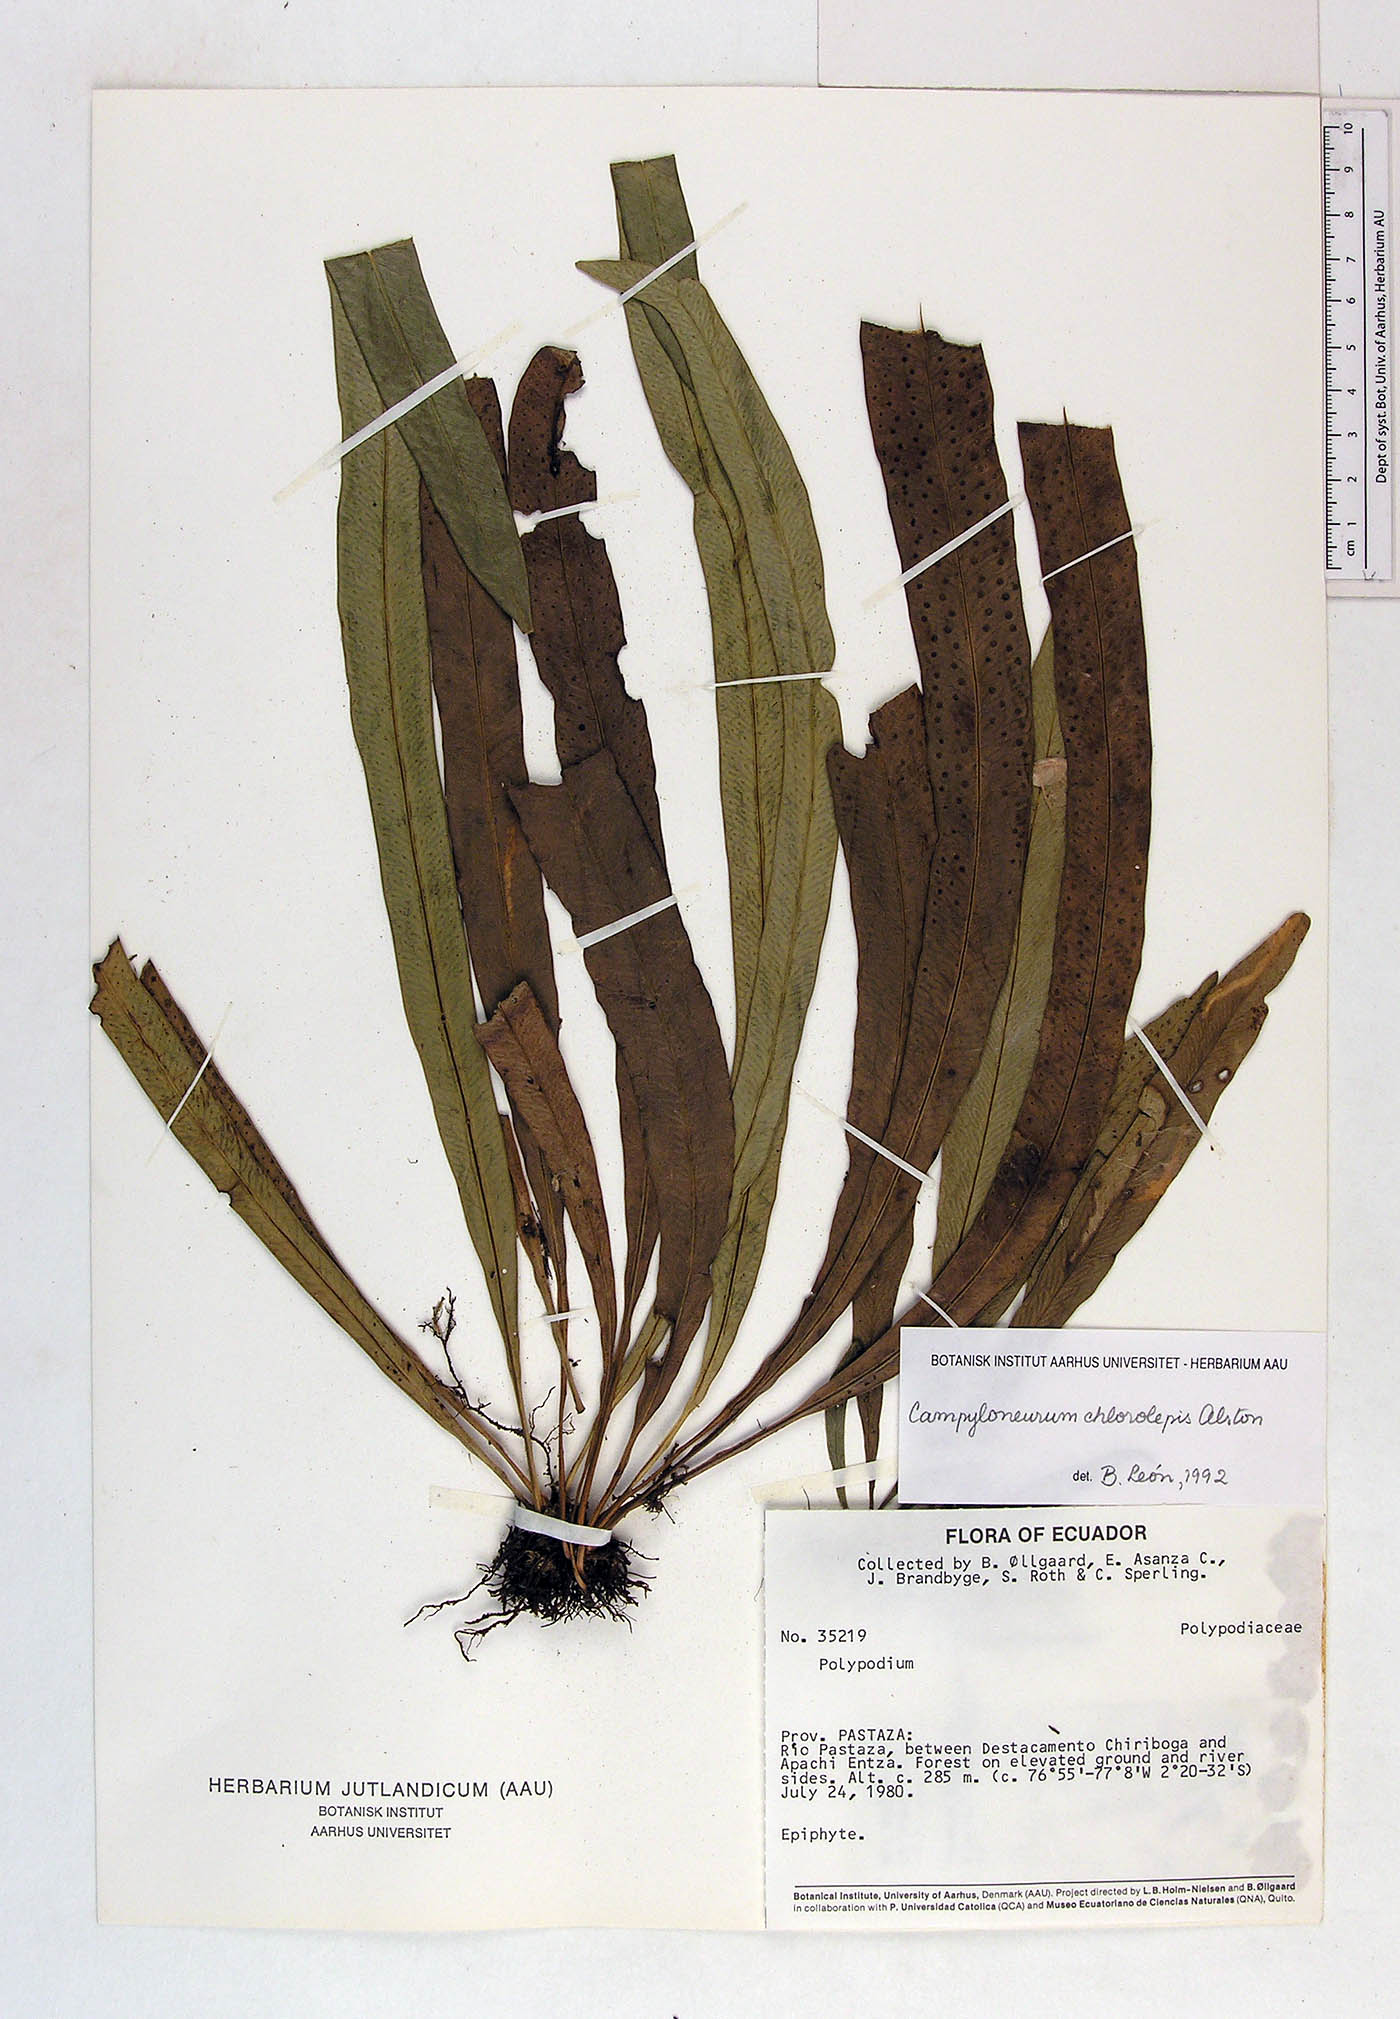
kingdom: Plantae
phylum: Tracheophyta
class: Polypodiopsida
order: Polypodiales
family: Polypodiaceae
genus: Campyloneurum
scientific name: Campyloneurum angustifolium
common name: Narrow-leaf strap fern
